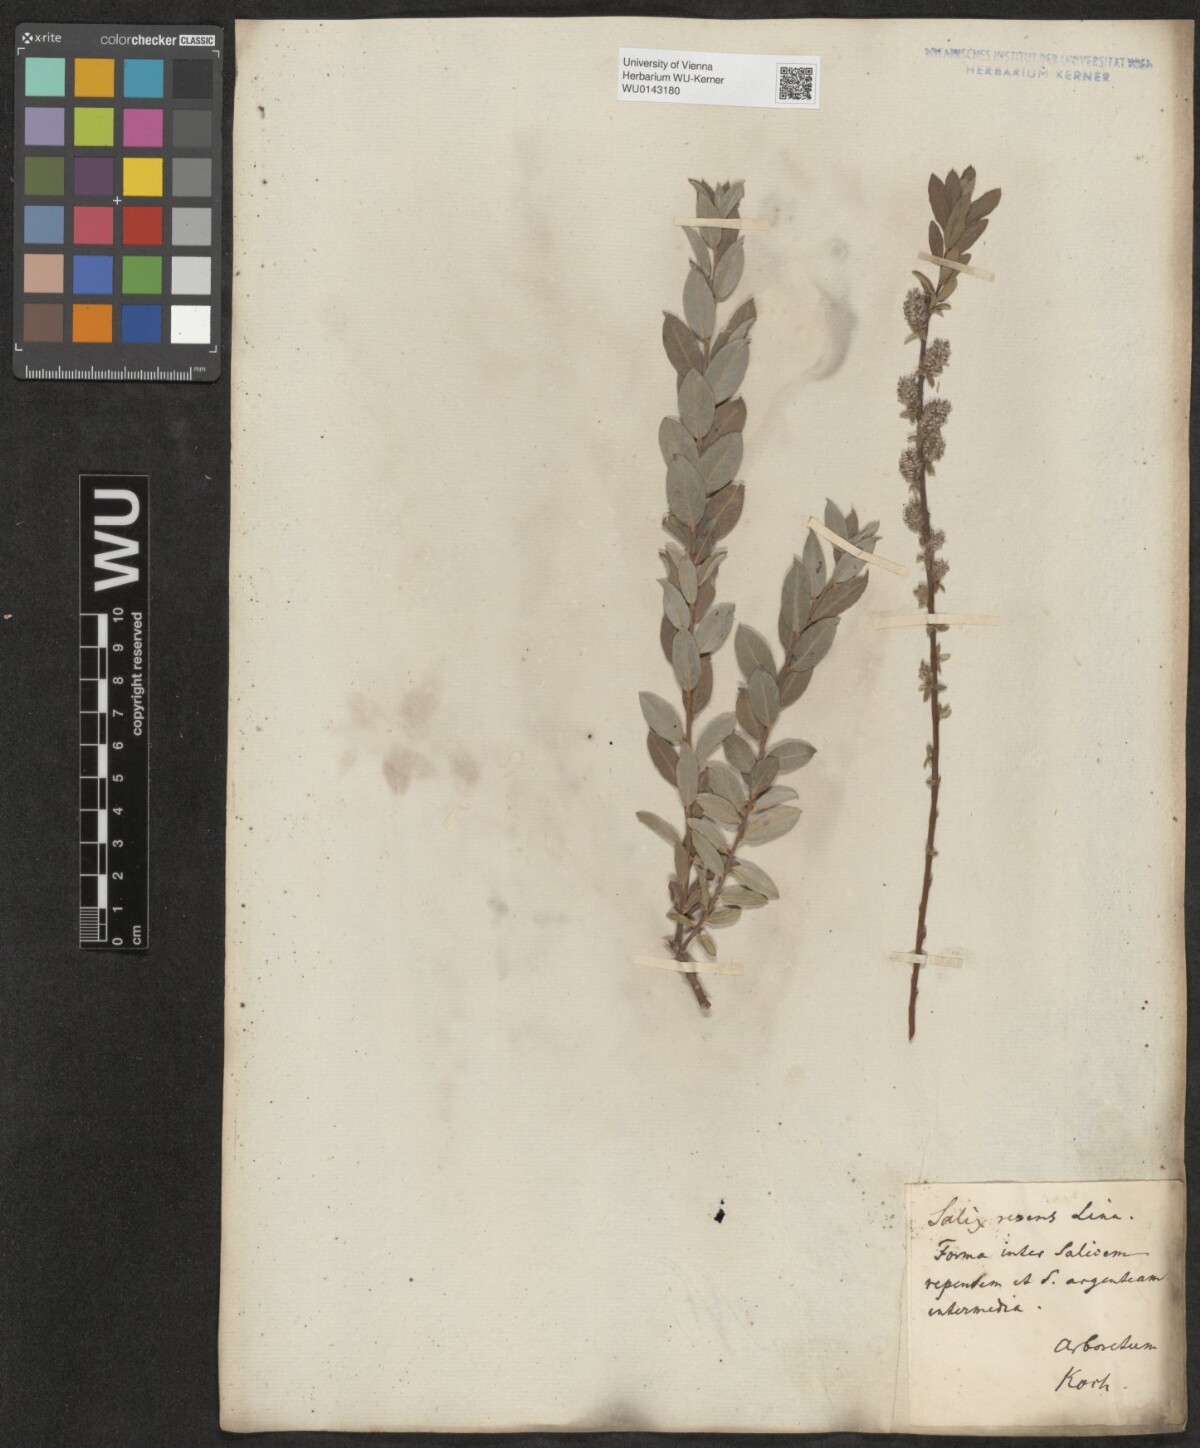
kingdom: Plantae
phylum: Tracheophyta
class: Magnoliopsida
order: Malpighiales
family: Salicaceae
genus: Salix
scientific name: Salix repens
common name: Creeping willow
